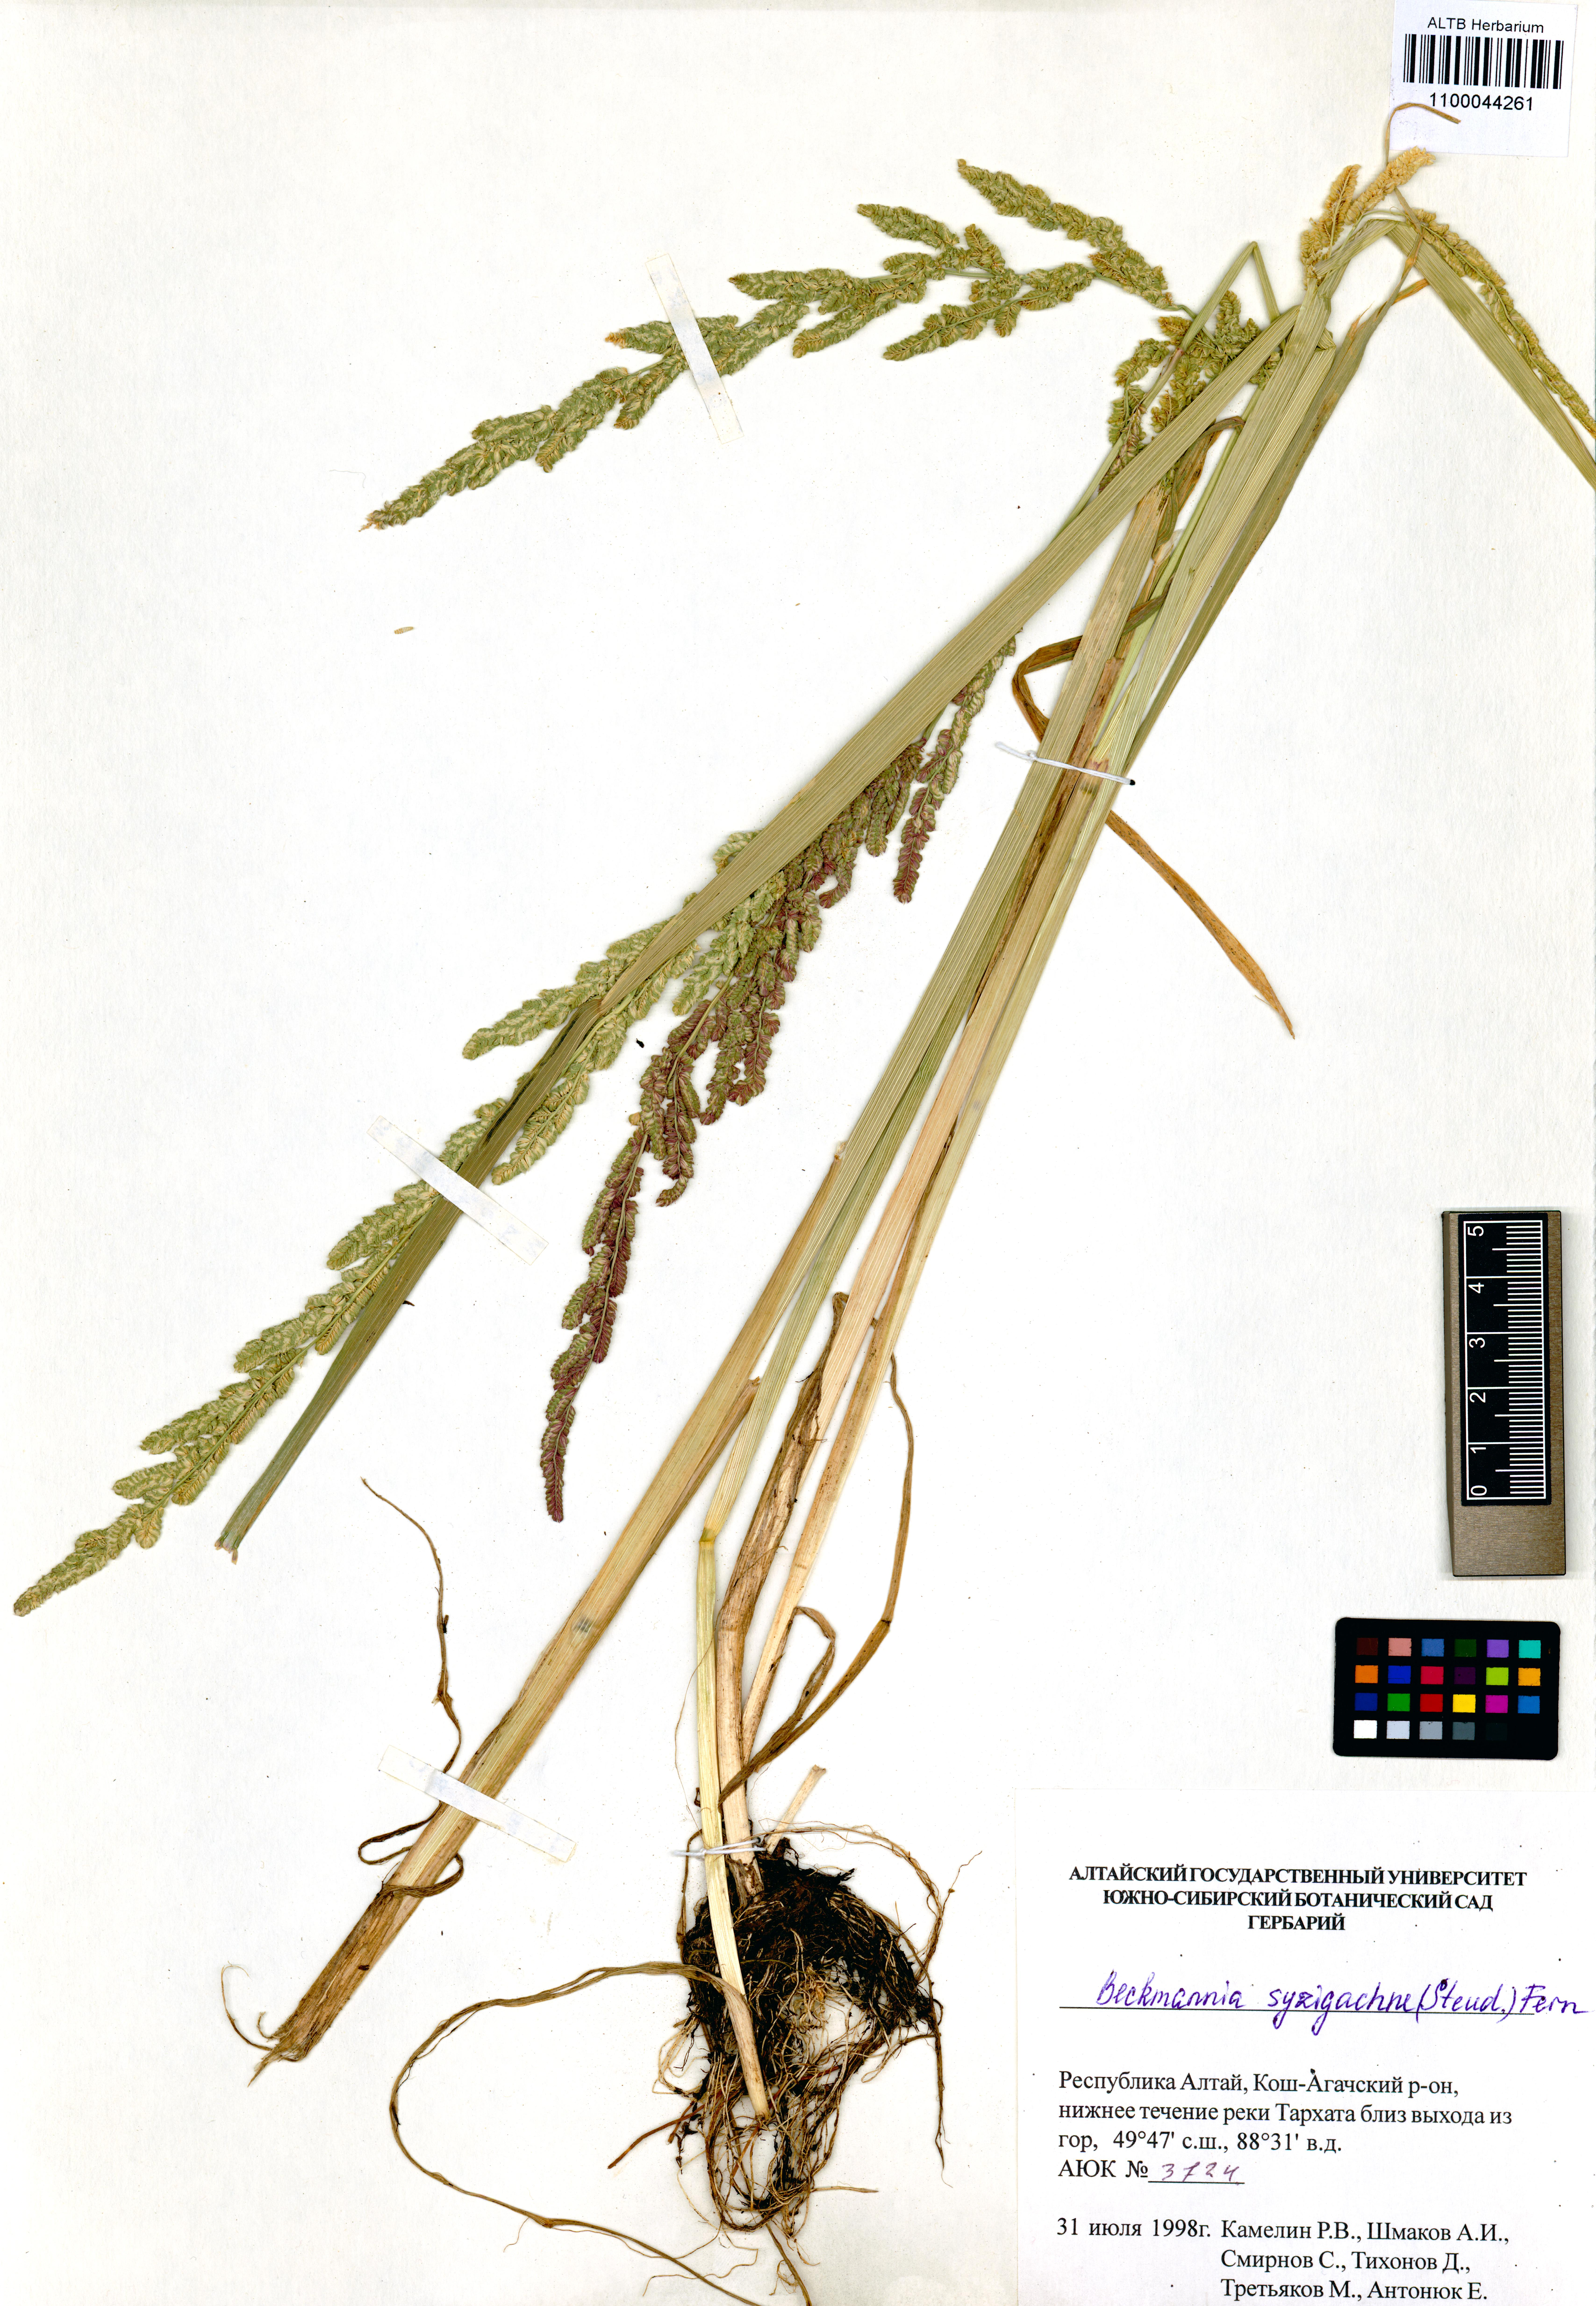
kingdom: Plantae
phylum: Tracheophyta
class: Liliopsida
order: Poales
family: Poaceae
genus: Beckmannia
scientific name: Beckmannia syzigachne
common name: American slough-grass
